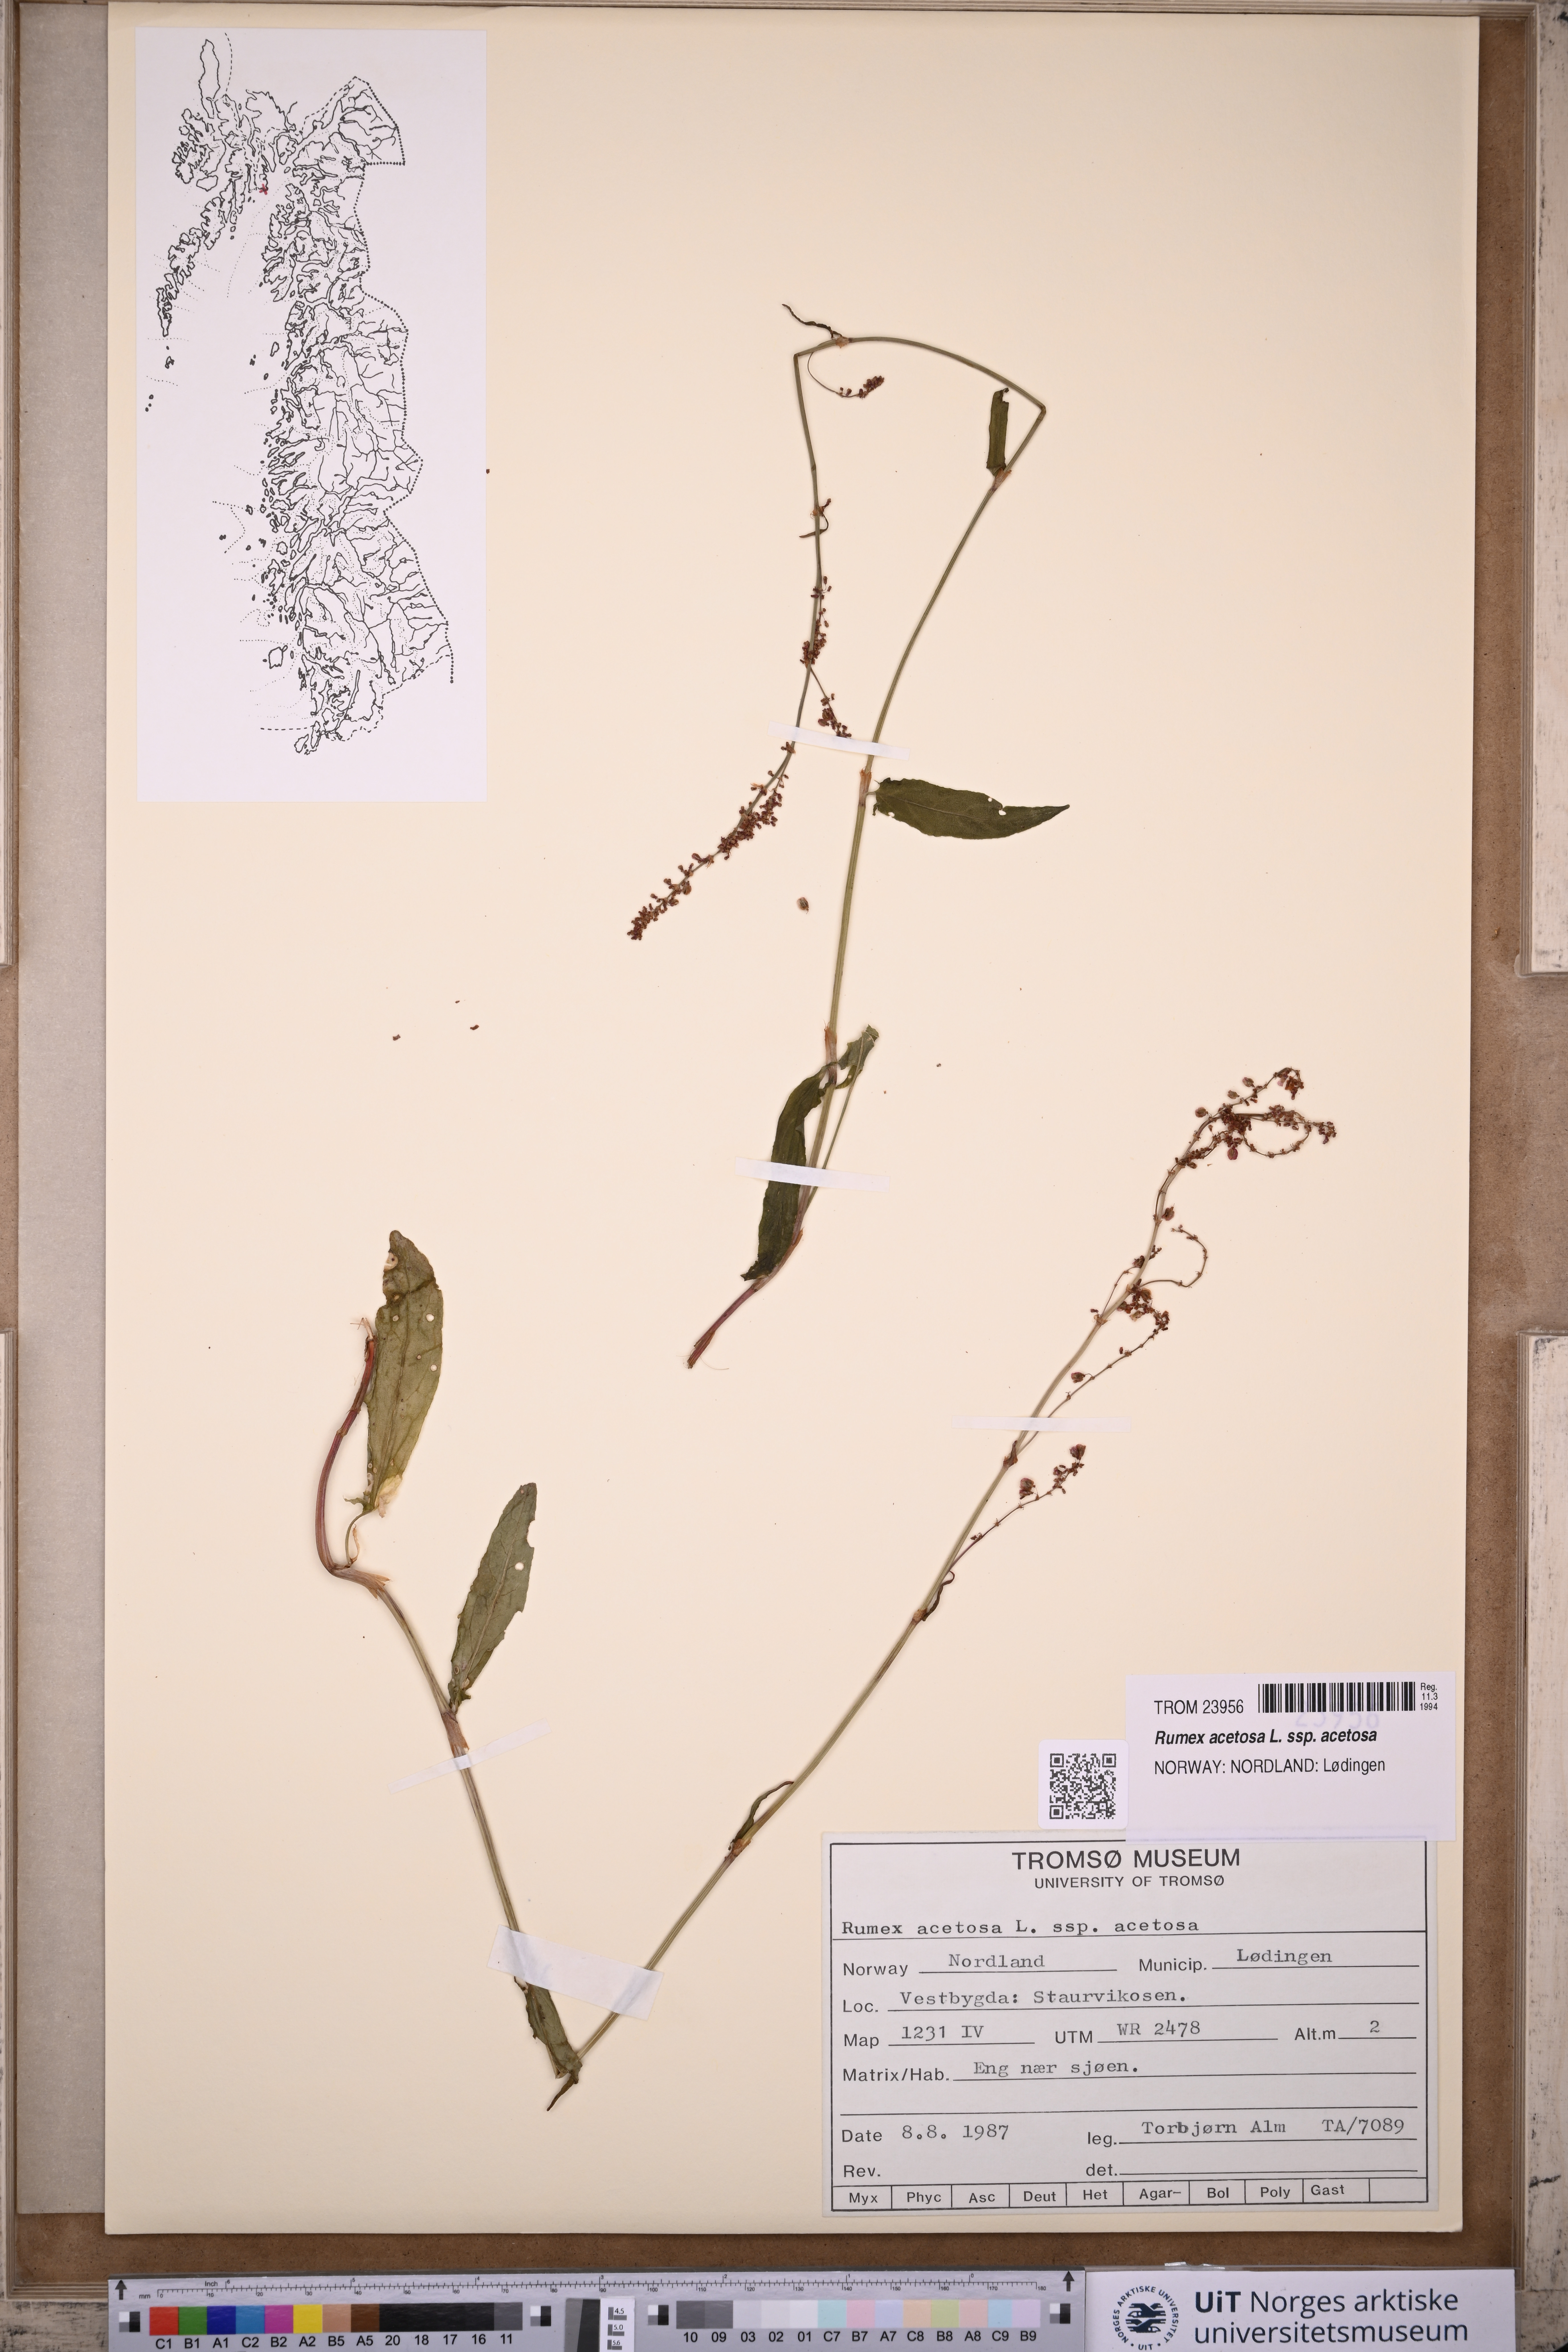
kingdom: Plantae
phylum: Tracheophyta
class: Magnoliopsida
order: Caryophyllales
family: Polygonaceae
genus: Rumex
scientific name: Rumex acetosa
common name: Garden sorrel
